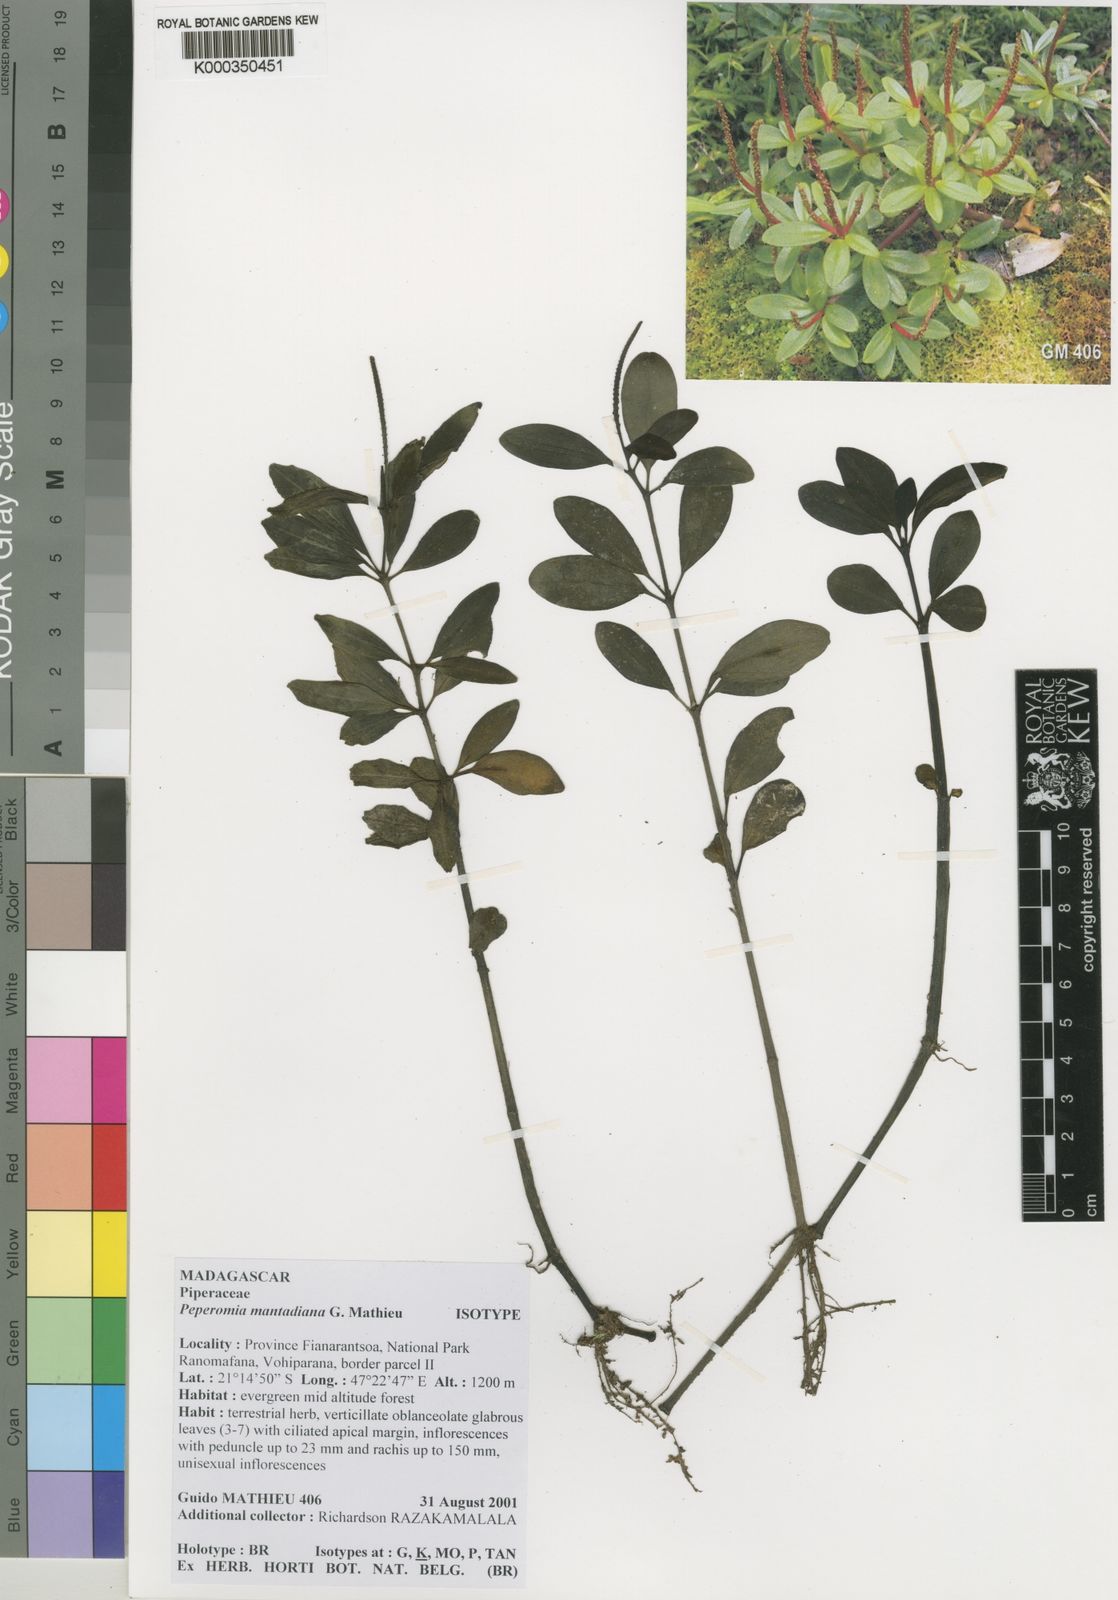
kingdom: Plantae
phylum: Tracheophyta
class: Magnoliopsida
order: Piperales
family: Piperaceae
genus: Peperomia
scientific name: Peperomia mantadiana
